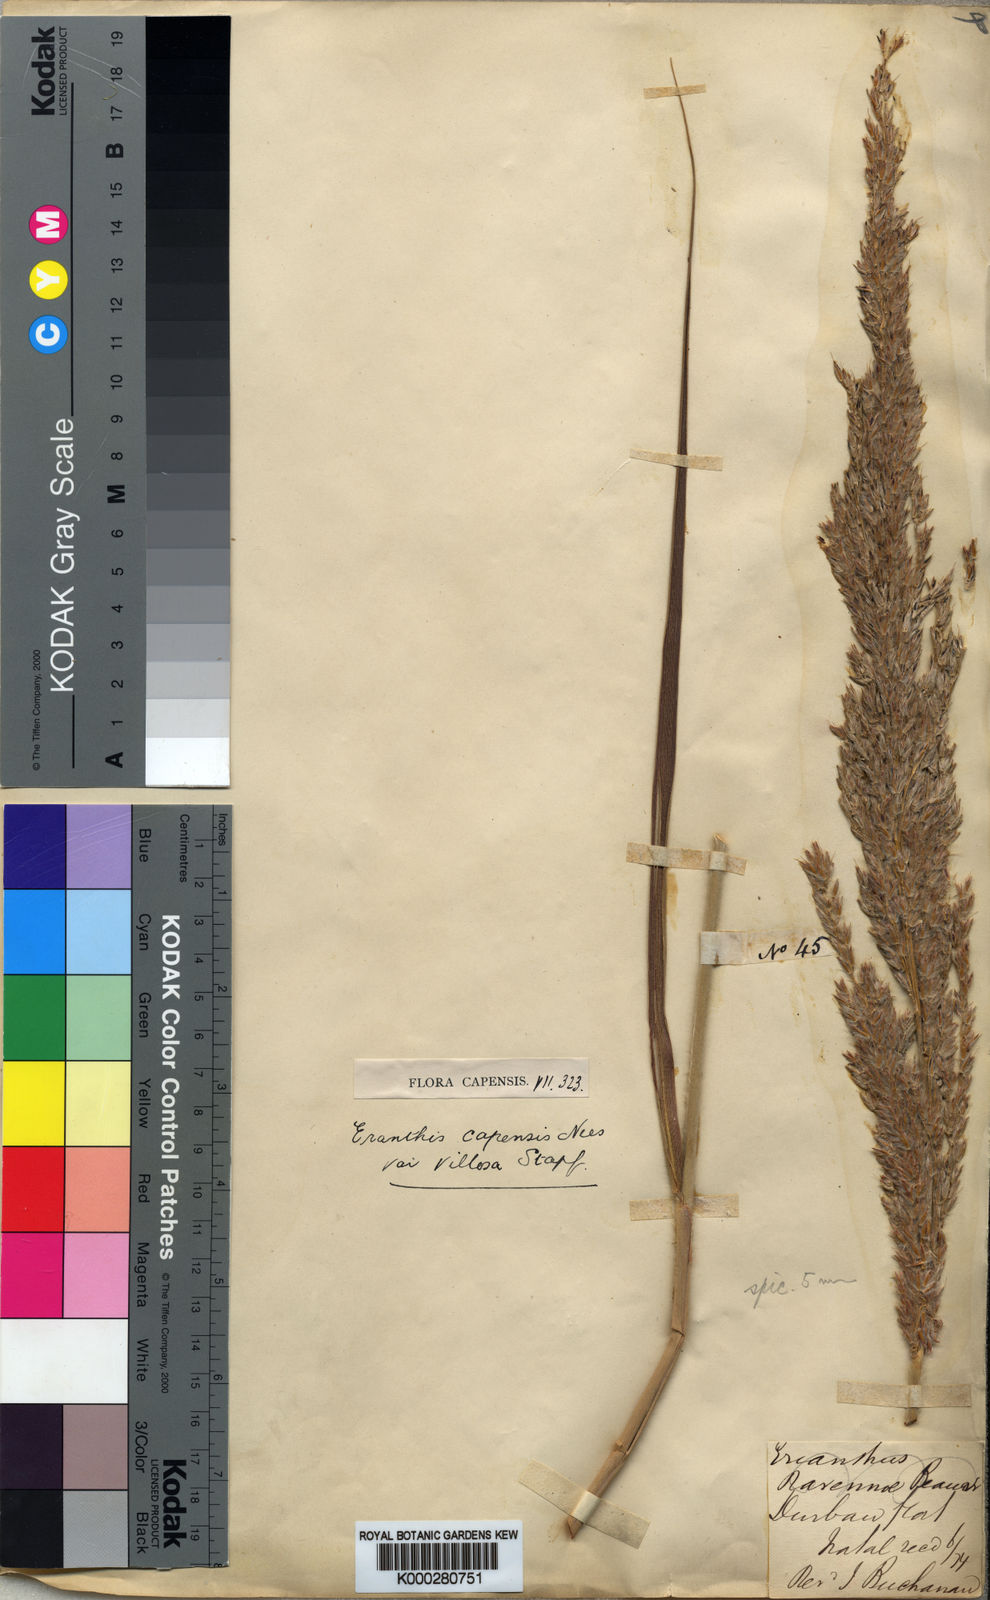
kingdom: Plantae
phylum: Tracheophyta
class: Liliopsida
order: Poales
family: Poaceae
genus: Miscanthus
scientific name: Miscanthus ecklonii
